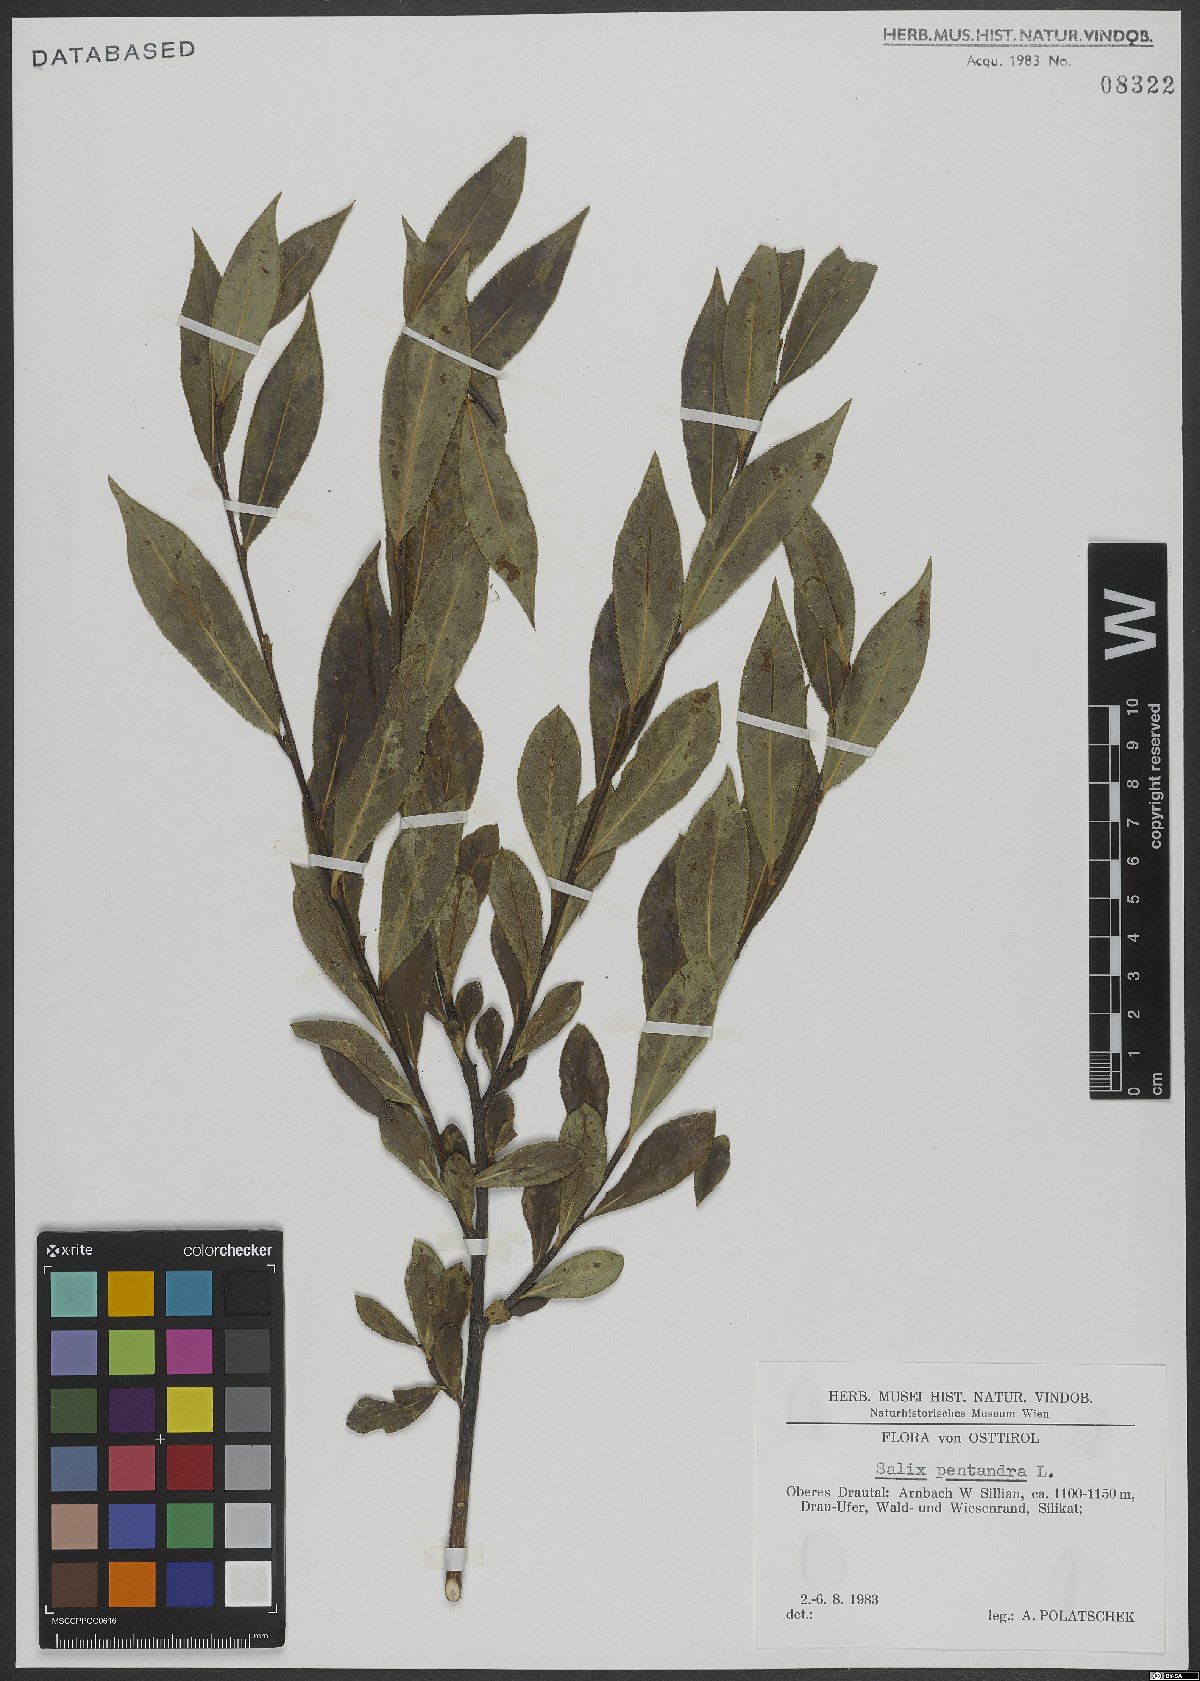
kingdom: Plantae
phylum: Tracheophyta
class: Magnoliopsida
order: Malpighiales
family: Salicaceae
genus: Salix
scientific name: Salix pentandra
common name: Bay willow
